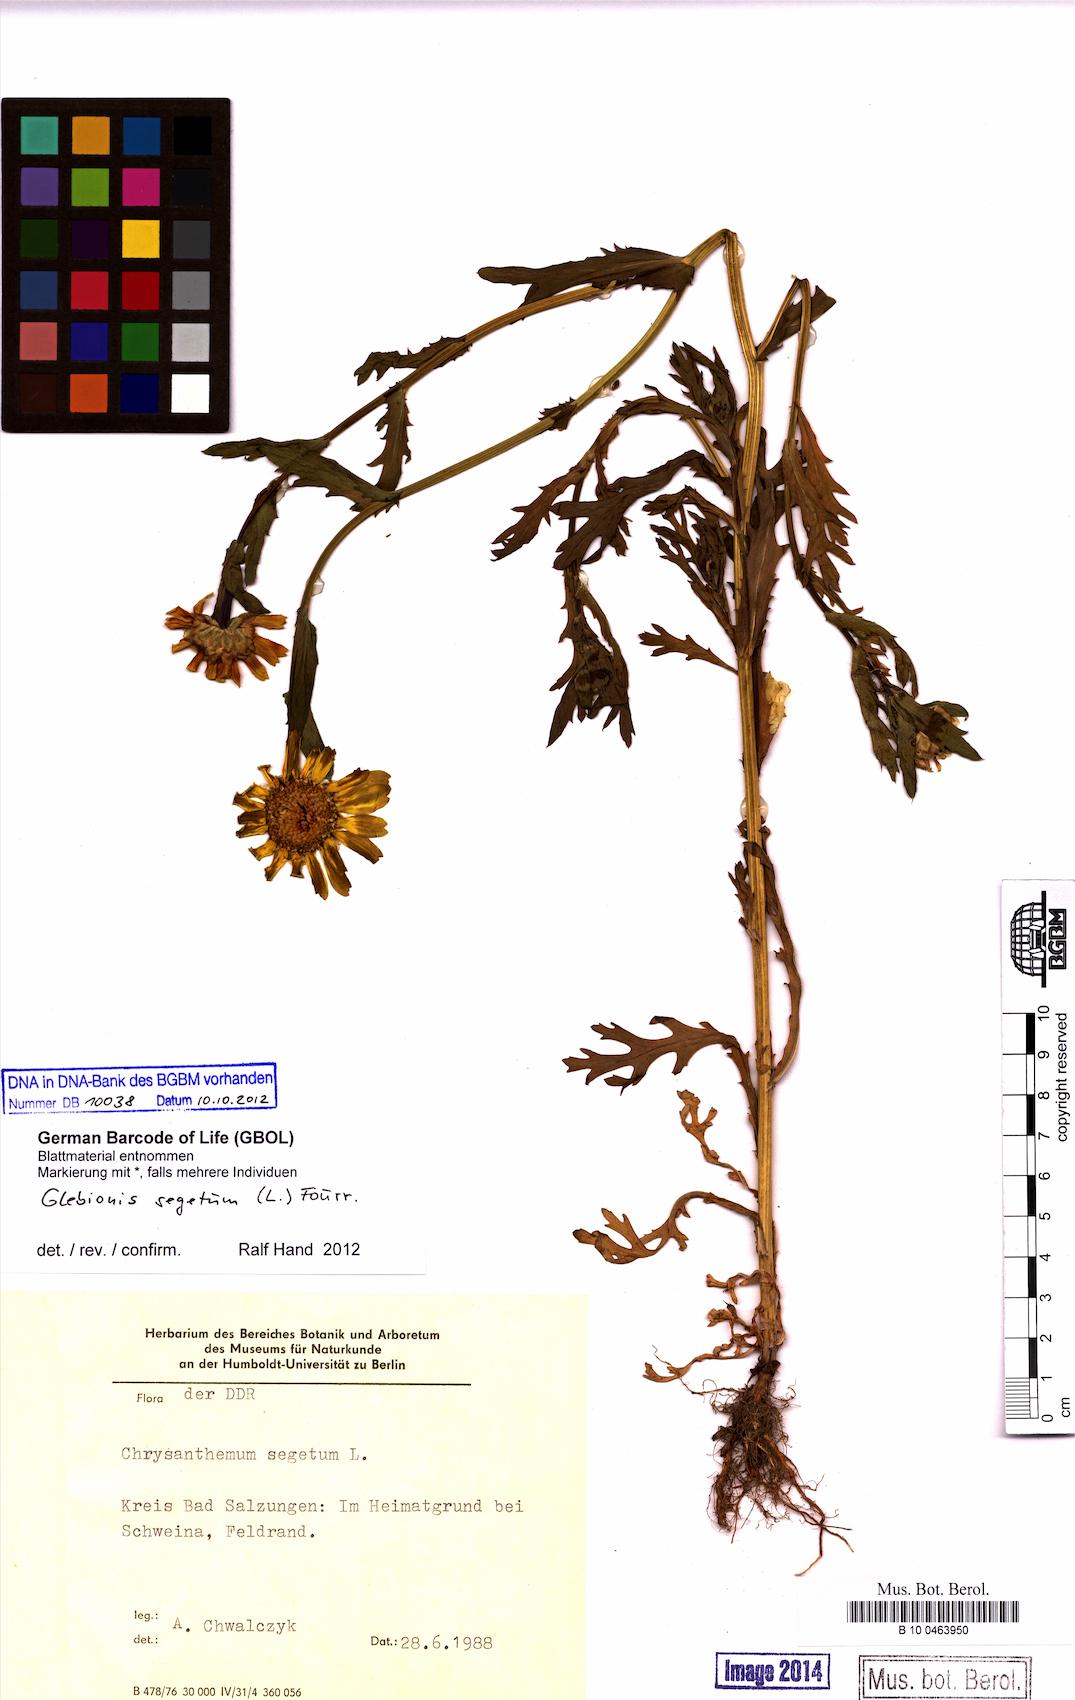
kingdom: Plantae
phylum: Tracheophyta
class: Magnoliopsida
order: Asterales
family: Asteraceae
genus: Glebionis
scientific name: Glebionis segetum
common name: Corndaisy
